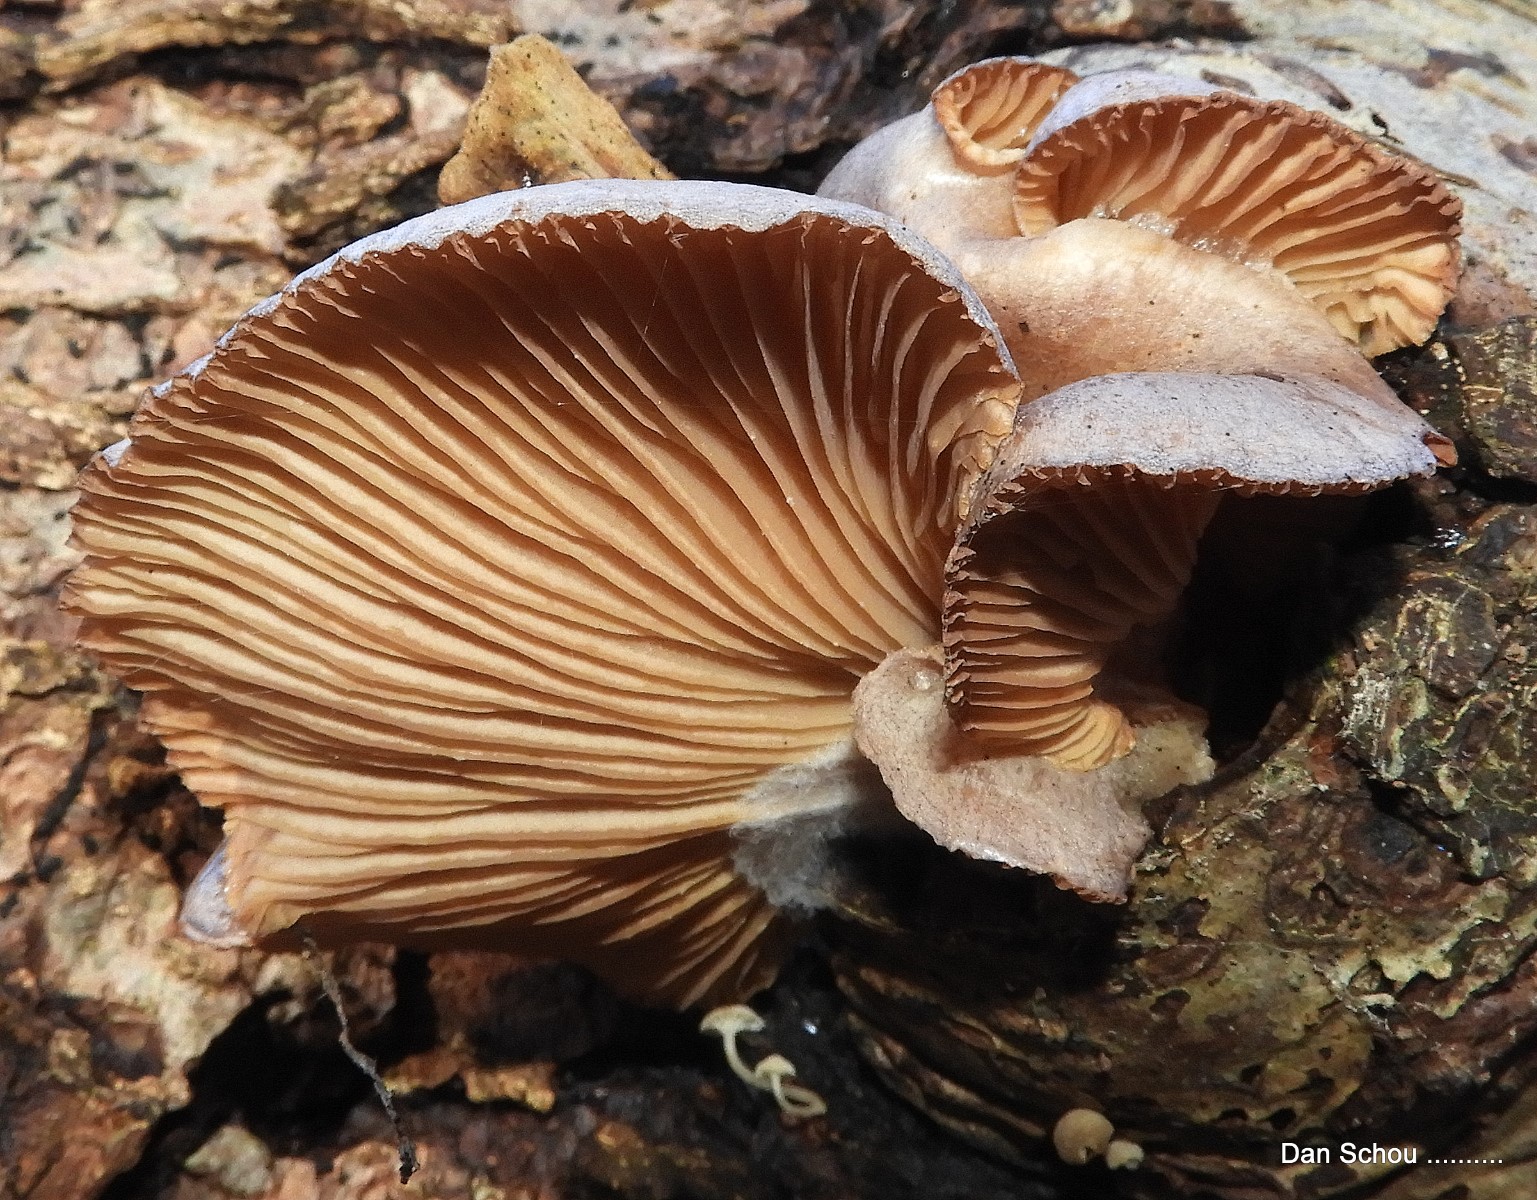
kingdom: Fungi
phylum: Basidiomycota
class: Agaricomycetes
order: Agaricales
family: Pleurotaceae
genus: Pleurotus
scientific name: Pleurotus ostreatus
